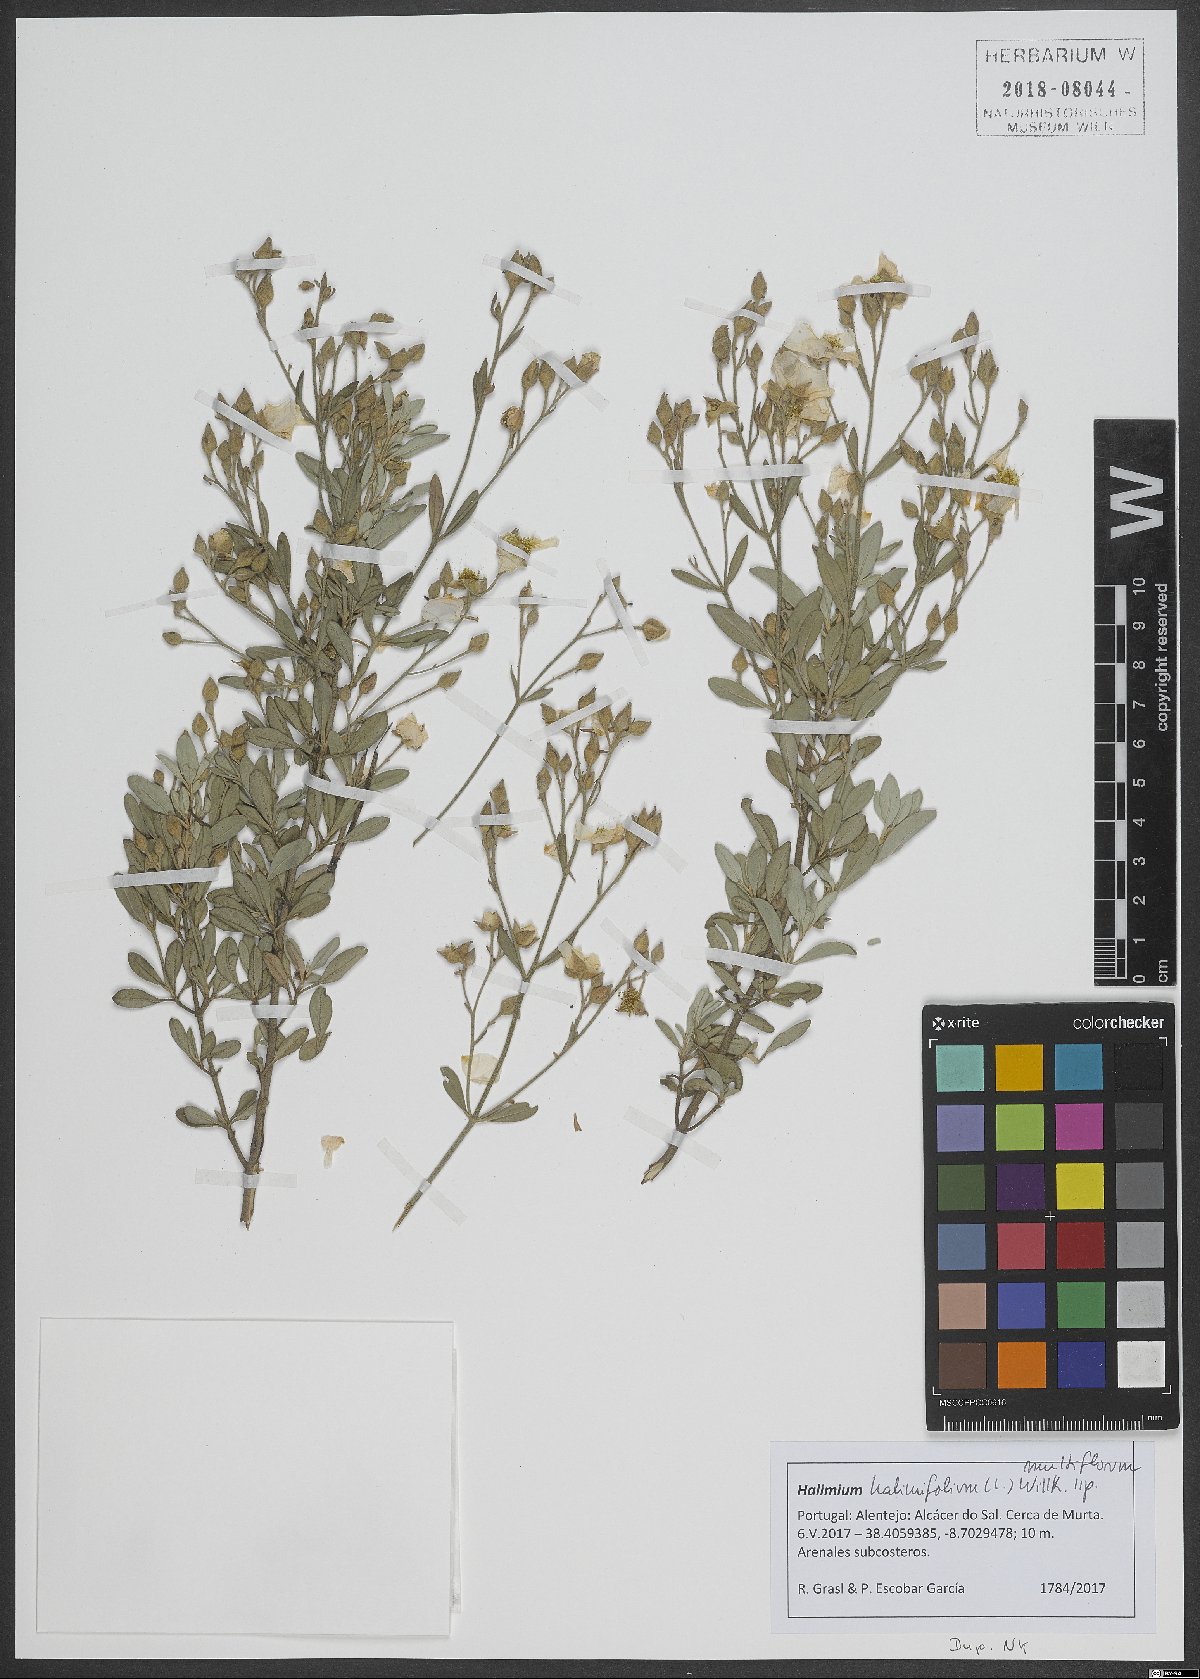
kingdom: Plantae
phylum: Tracheophyta
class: Magnoliopsida
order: Malvales
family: Cistaceae
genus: Halimium
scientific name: Halimium halimifolium
